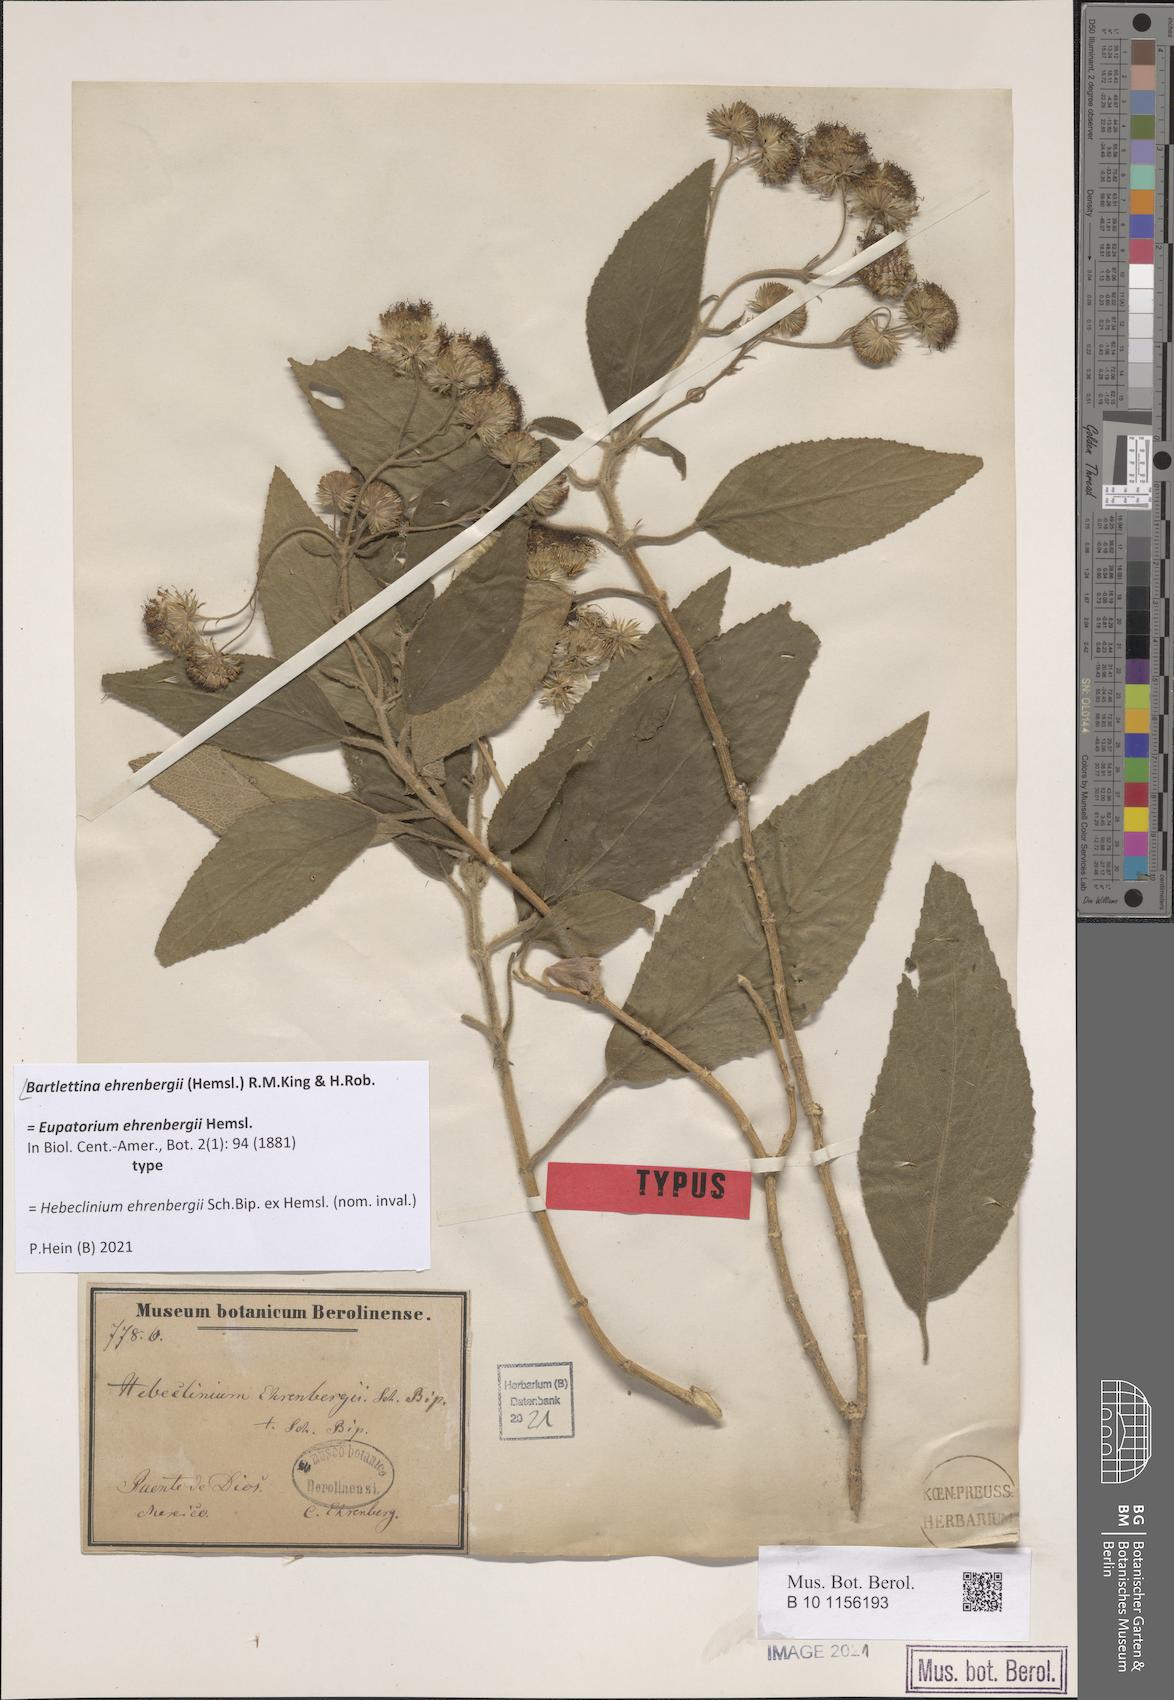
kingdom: Plantae
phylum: Tracheophyta
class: Magnoliopsida
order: Asterales
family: Asteraceae
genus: Bartlettina
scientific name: Bartlettina ehrenbergii
